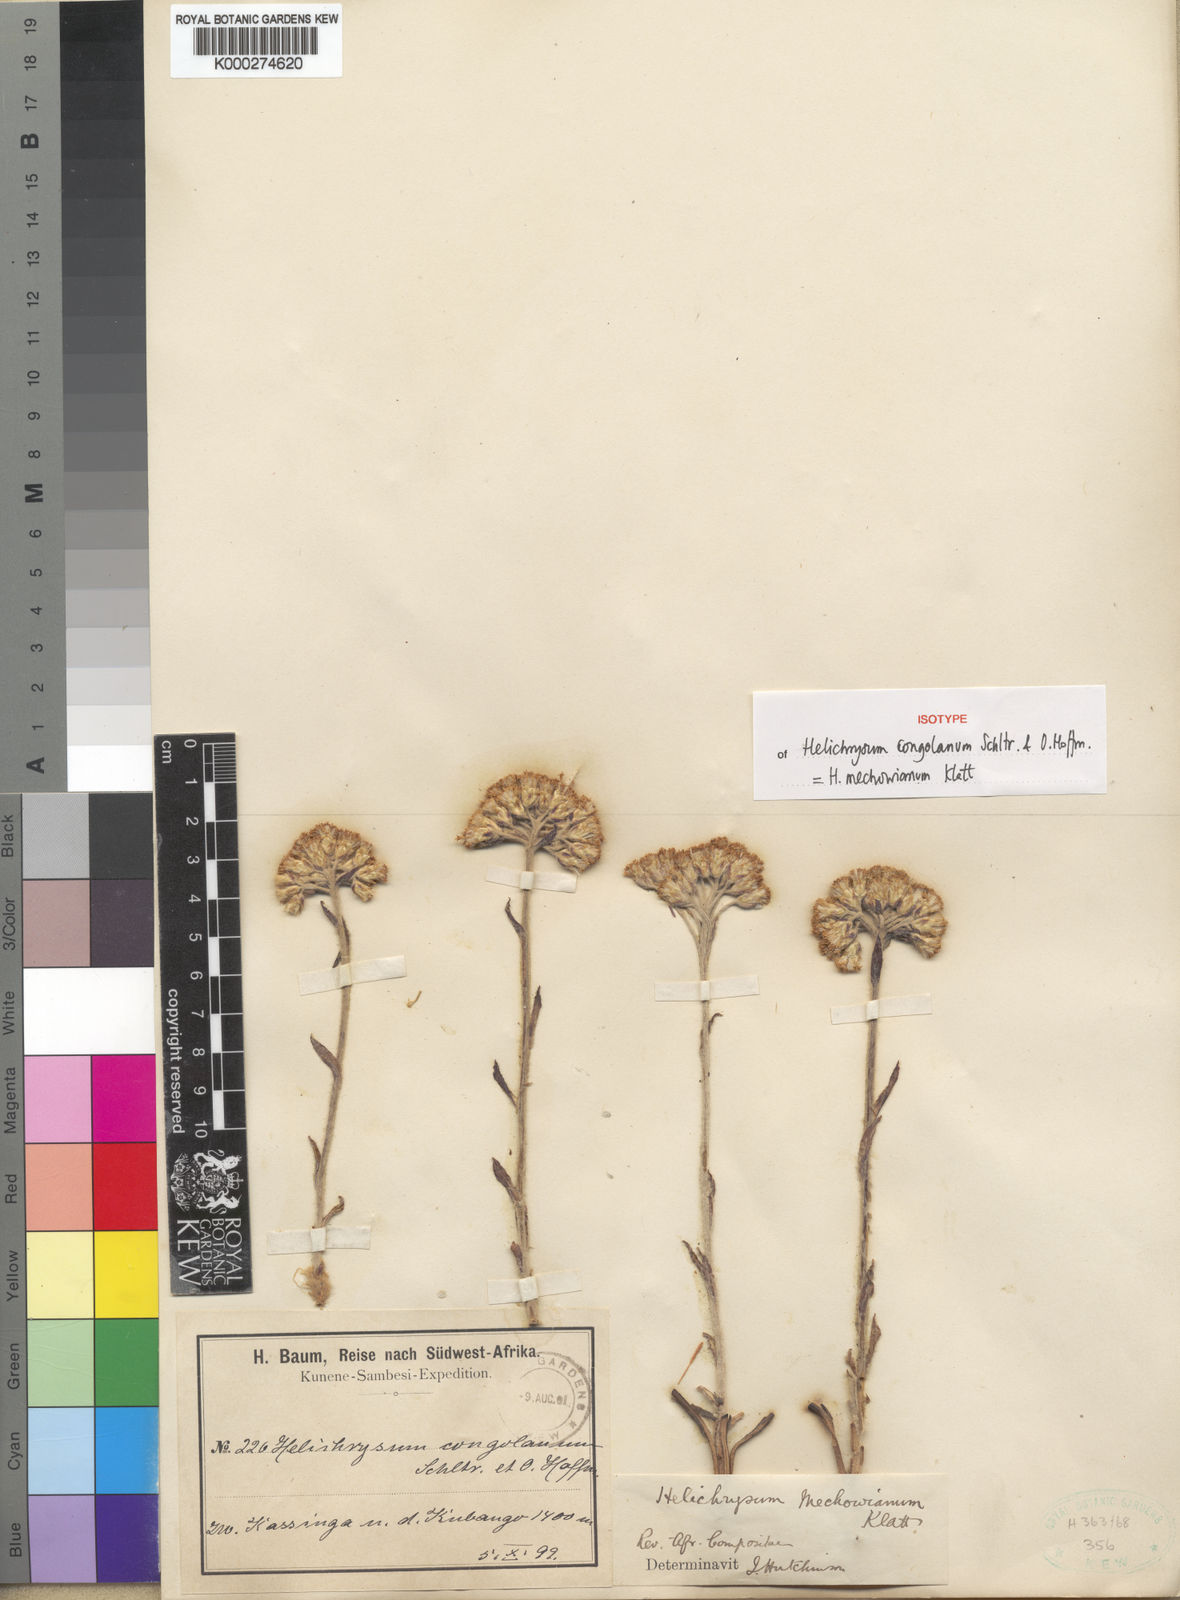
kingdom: Plantae
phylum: Tracheophyta
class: Magnoliopsida
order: Asterales
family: Asteraceae
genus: Helichrysum
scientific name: Helichrysum mechowianum
